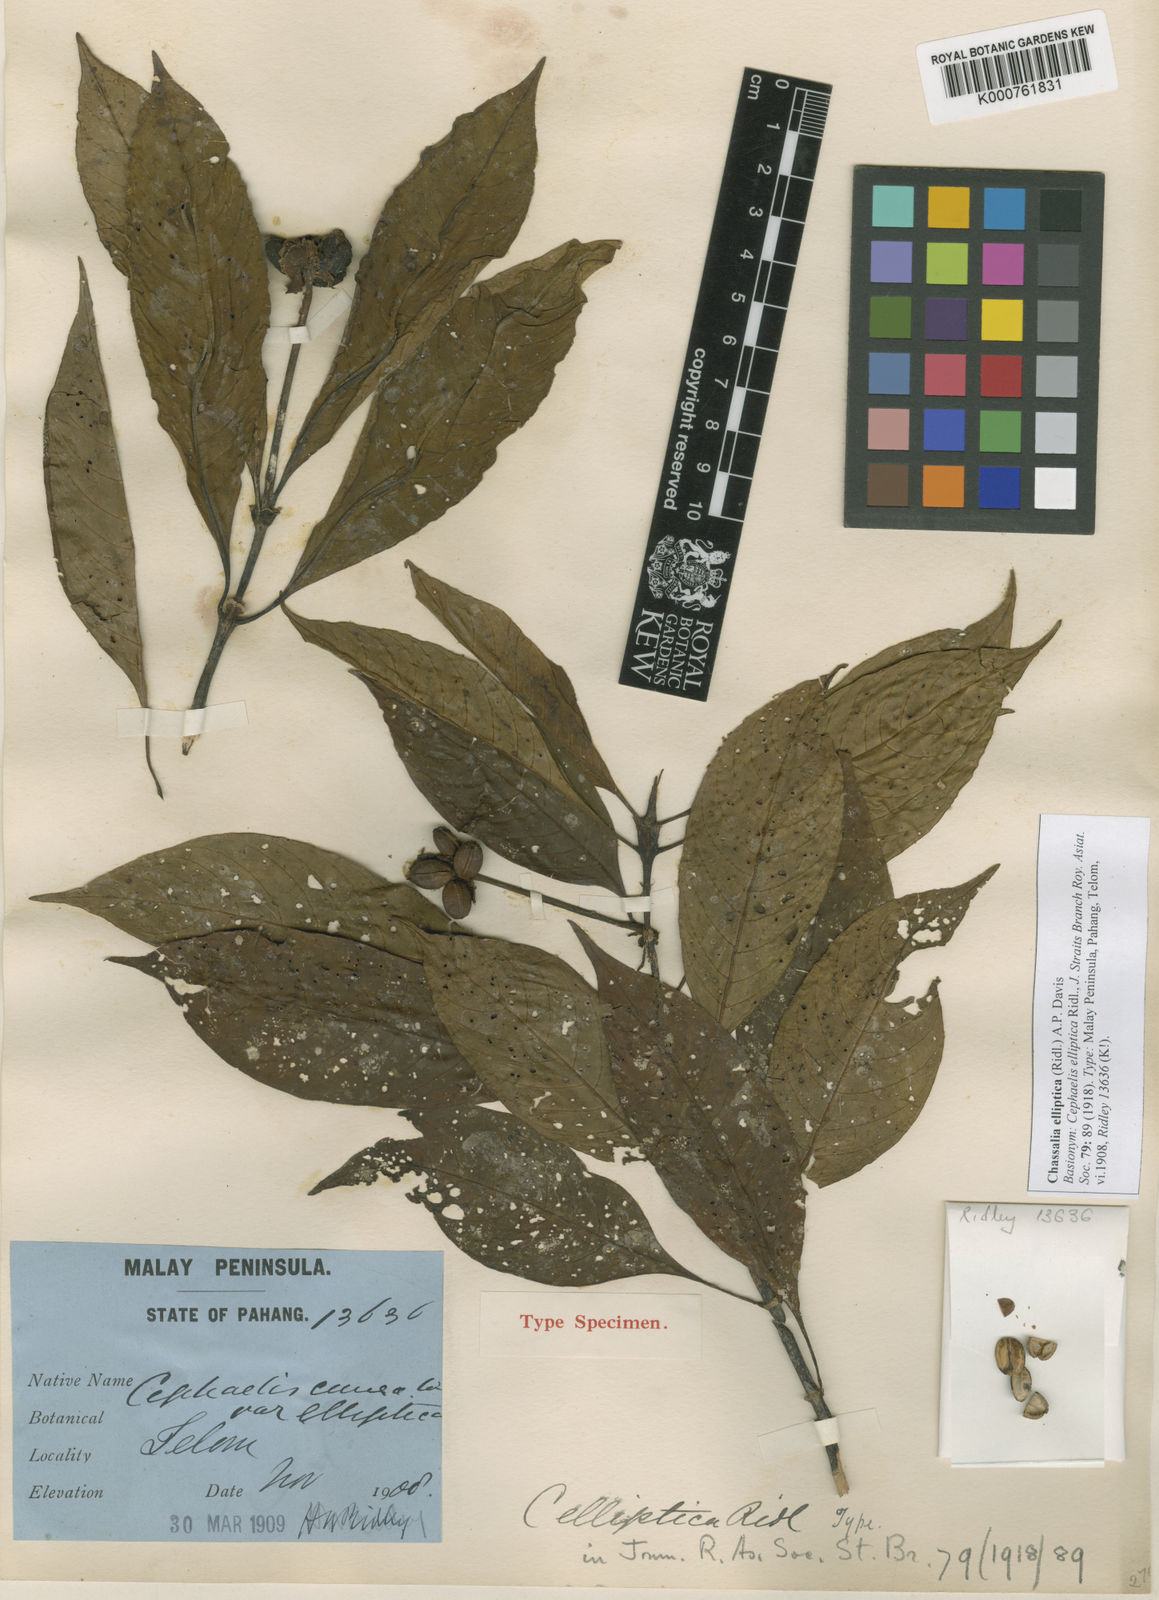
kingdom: Plantae
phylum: Tracheophyta
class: Magnoliopsida
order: Gentianales
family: Rubiaceae
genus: Chassalia
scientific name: Chassalia elliptica
